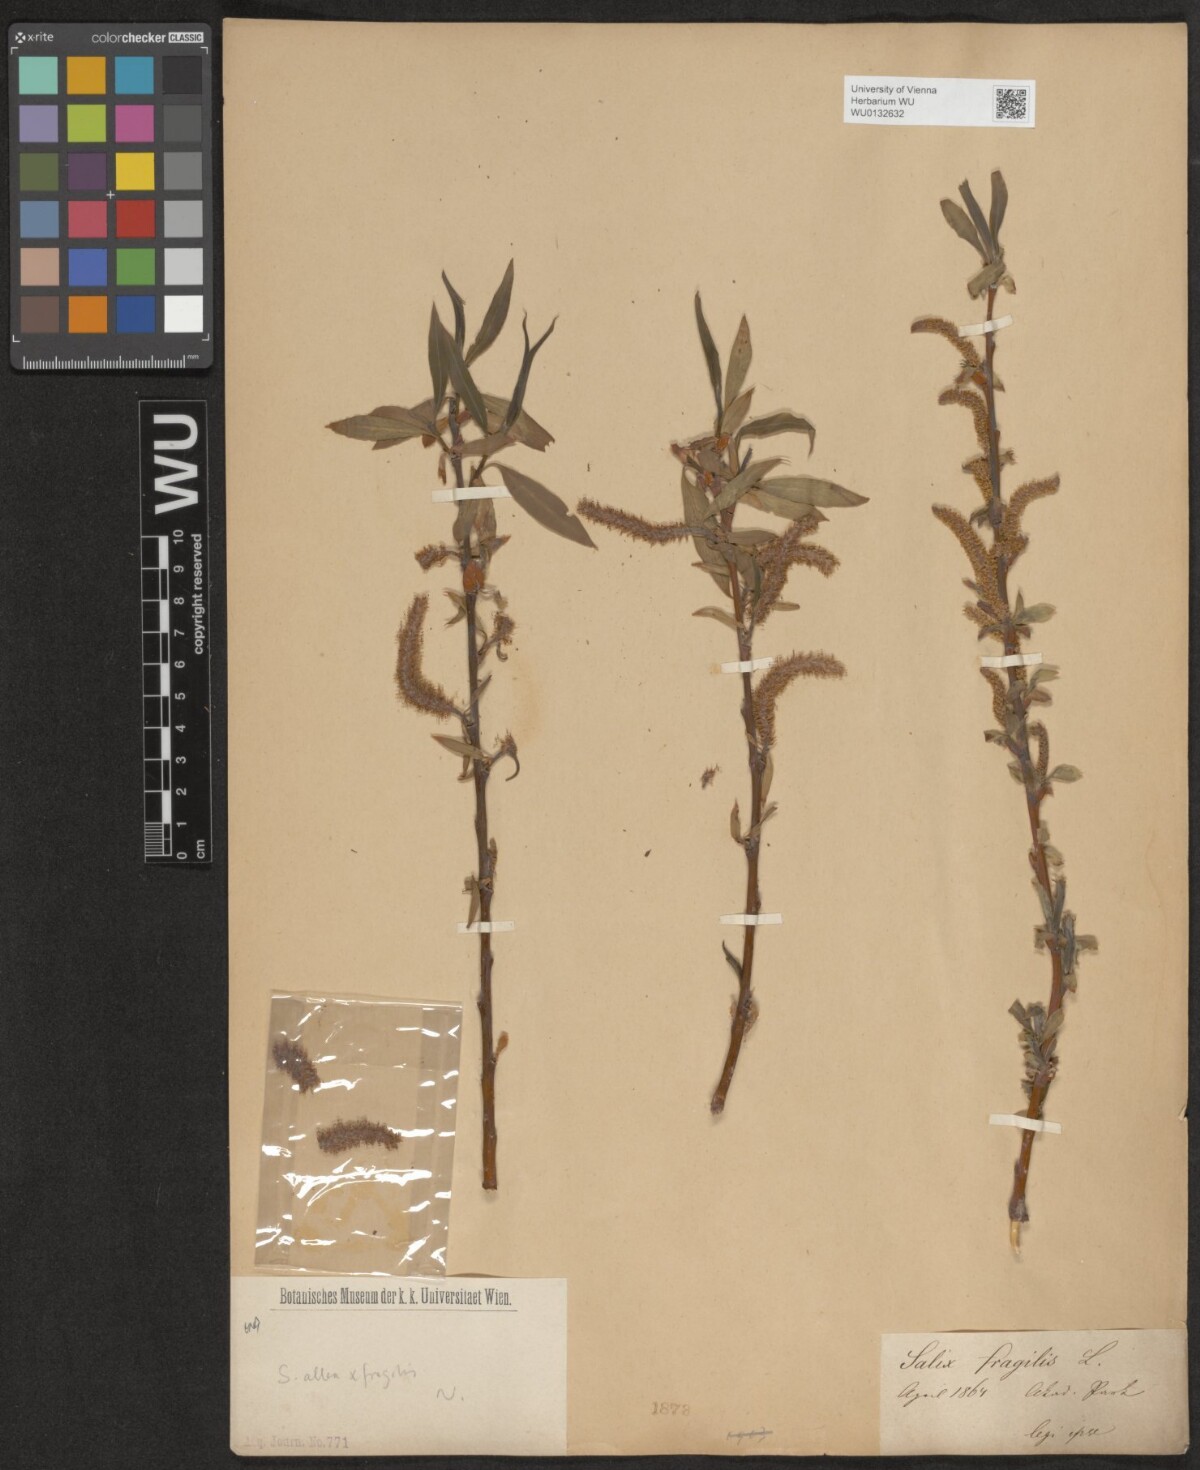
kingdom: Plantae
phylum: Tracheophyta
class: Magnoliopsida
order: Malpighiales
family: Salicaceae
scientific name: Salicaceae
